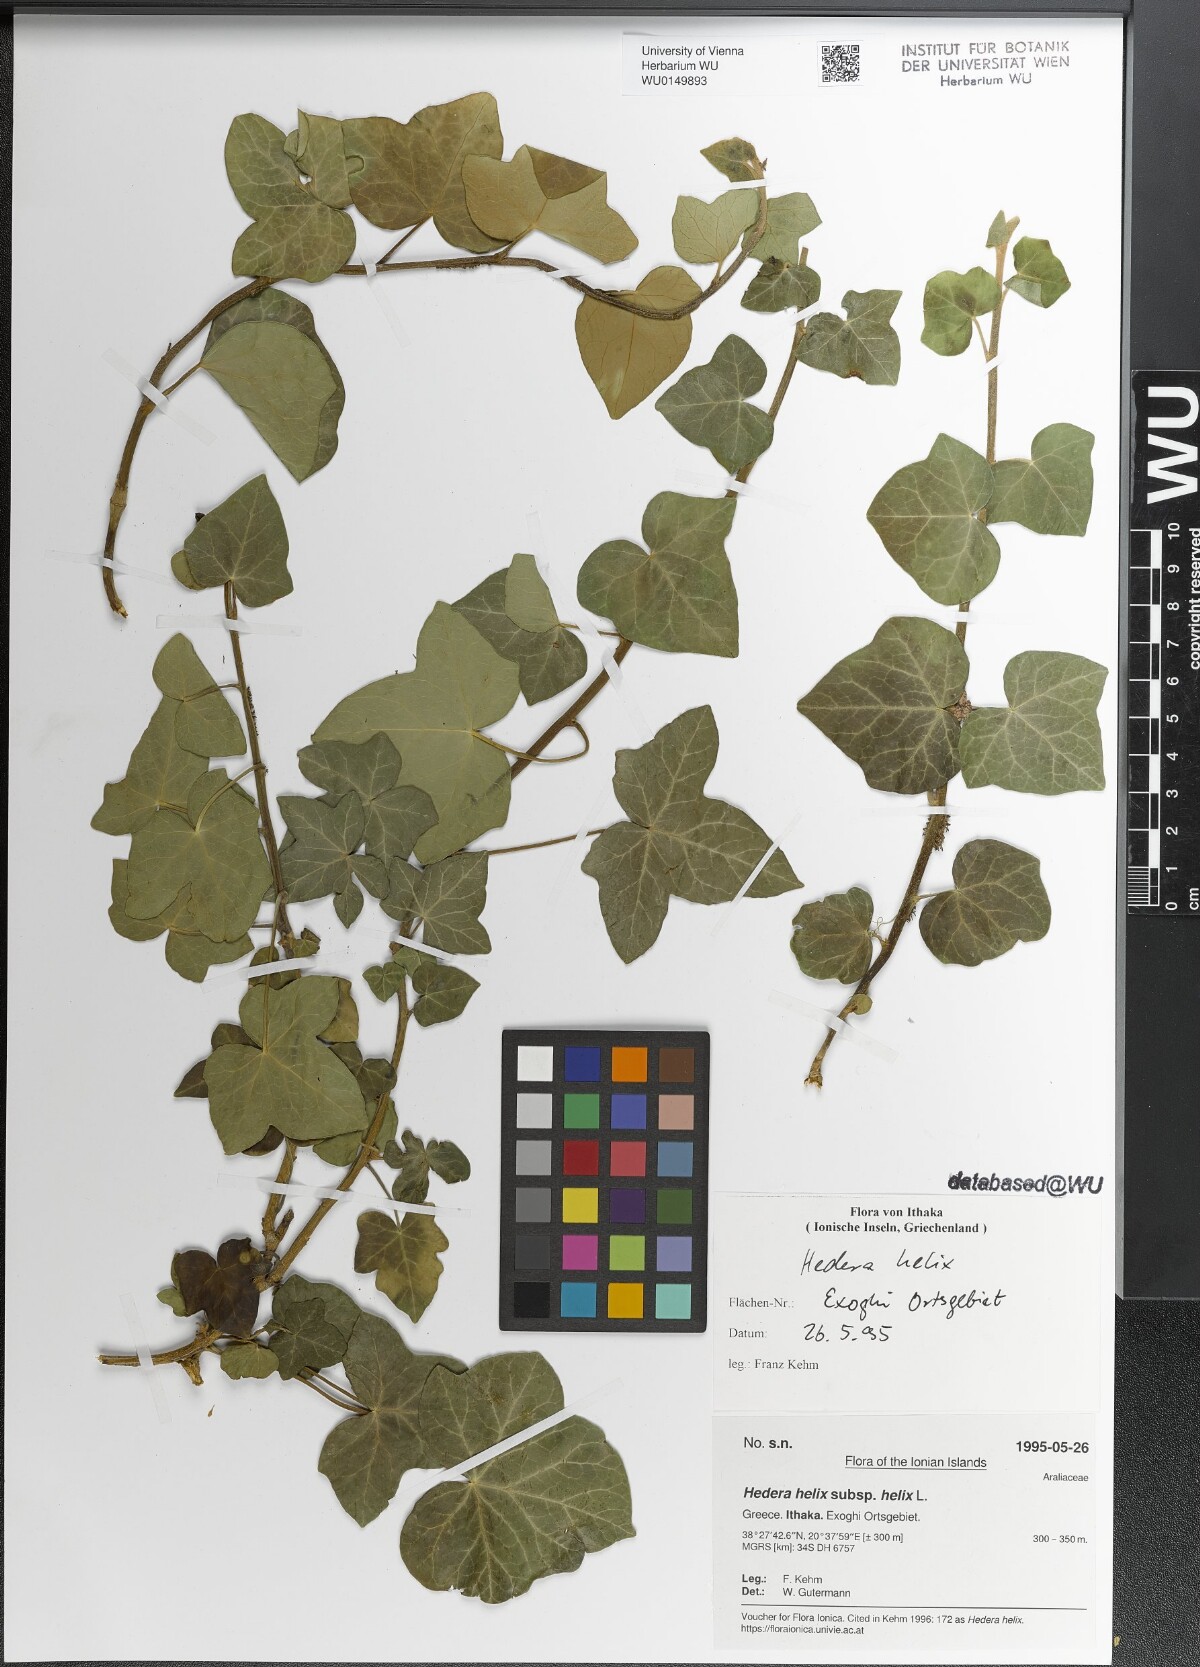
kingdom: Plantae
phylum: Tracheophyta
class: Magnoliopsida
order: Apiales
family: Araliaceae
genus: Hedera
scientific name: Hedera helix
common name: Ivy
